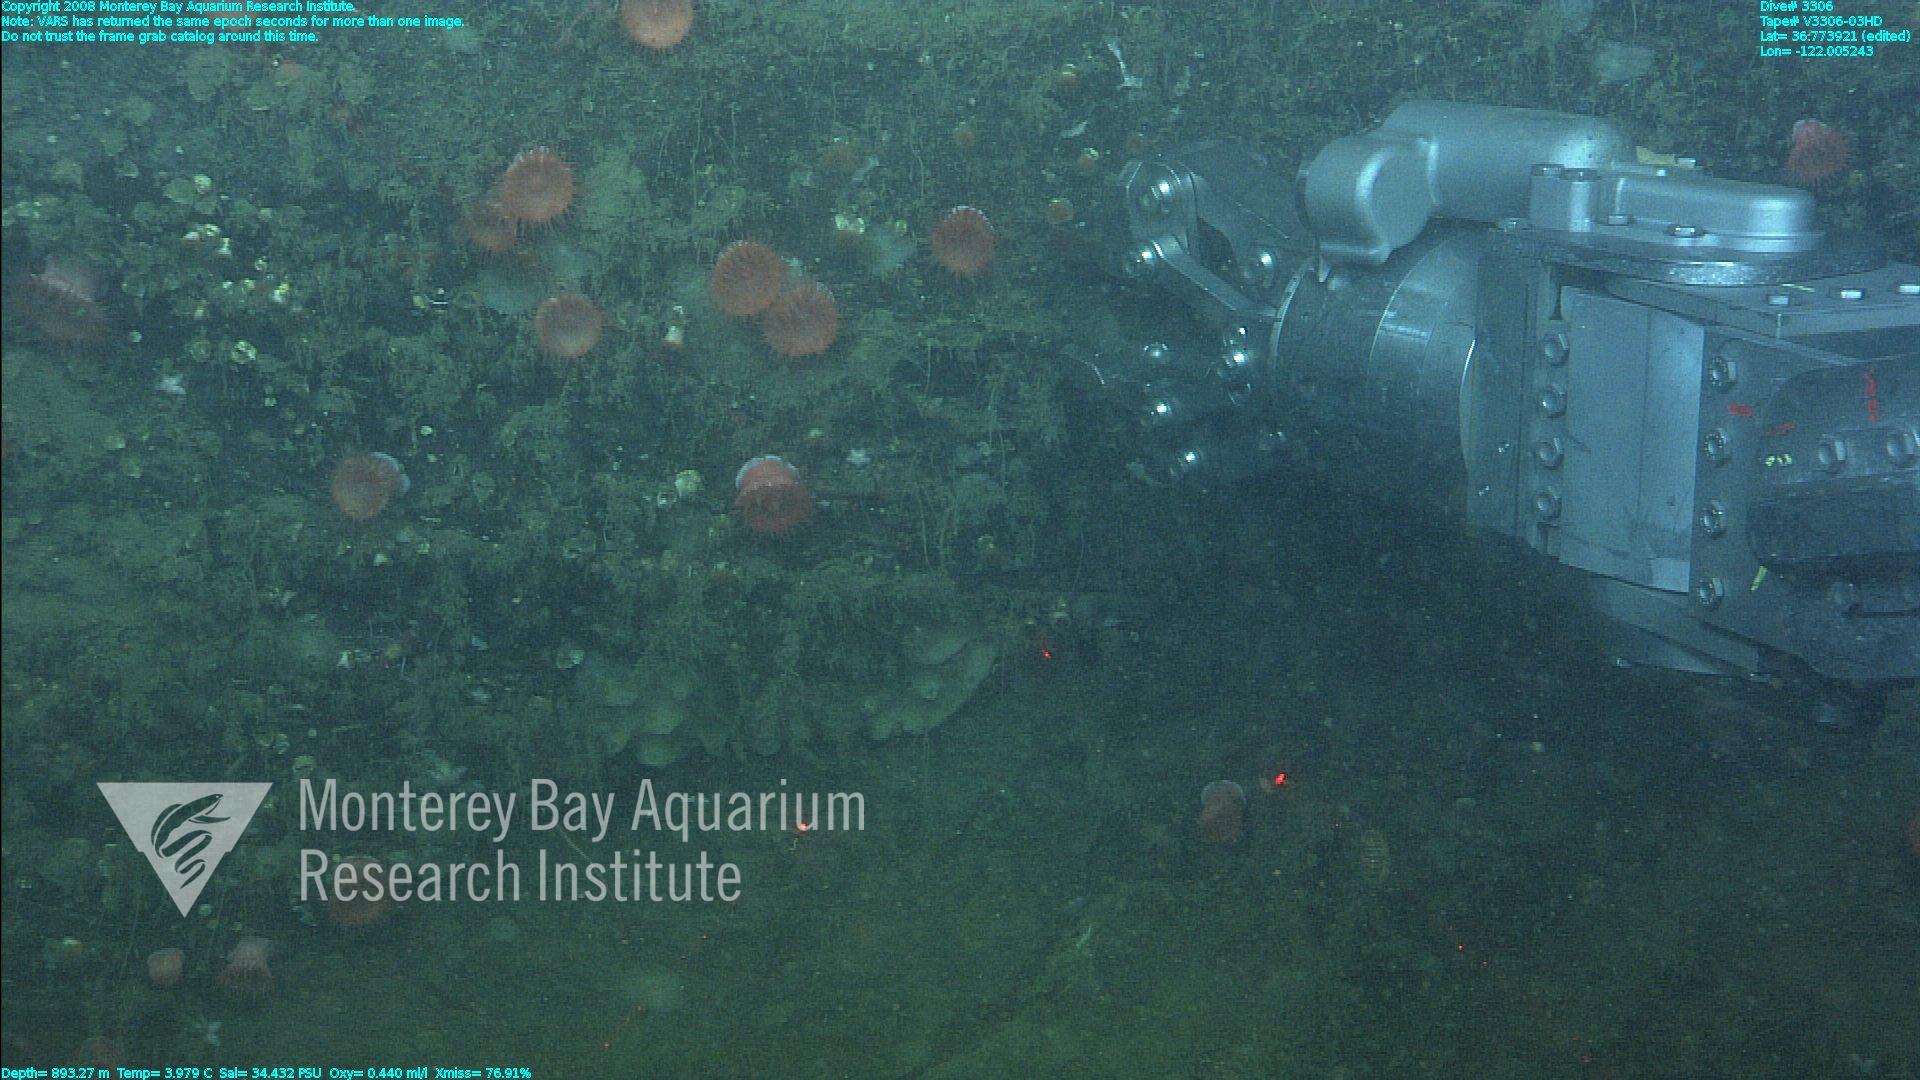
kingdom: Animalia
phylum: Porifera
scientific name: Porifera
